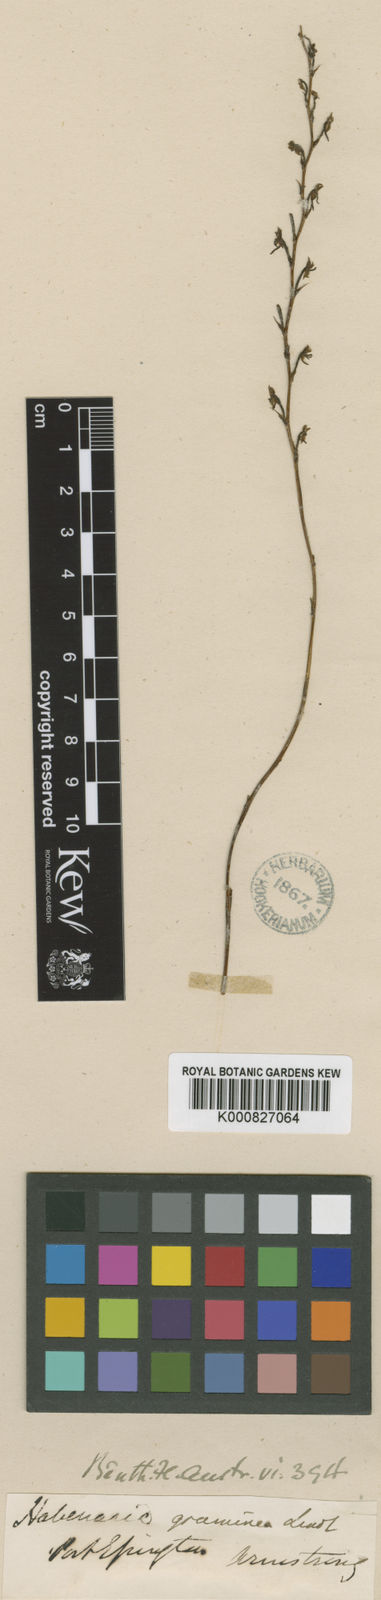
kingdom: Plantae
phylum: Tracheophyta
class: Liliopsida
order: Asparagales
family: Orchidaceae
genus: Habenaria
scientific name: Habenaria khasiana
